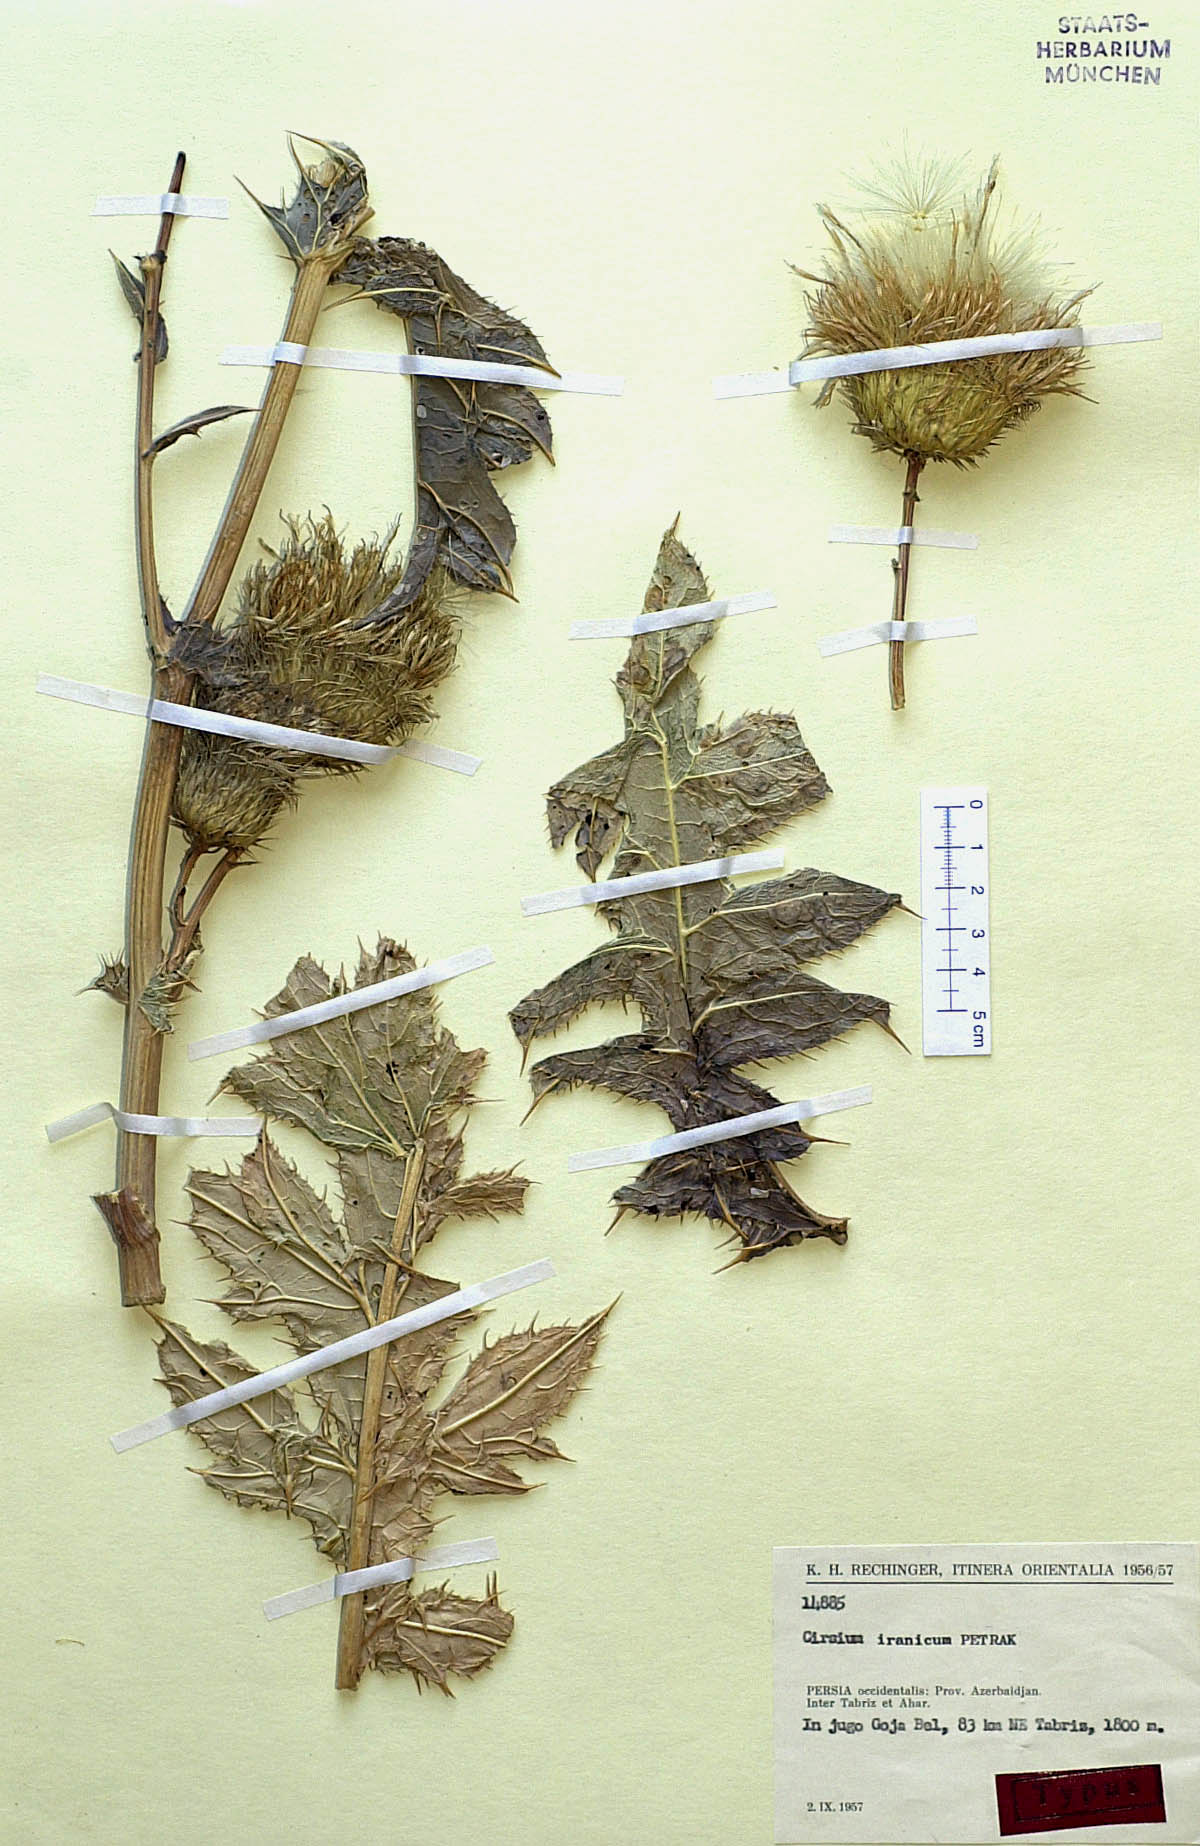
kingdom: Plantae
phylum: Tracheophyta
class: Magnoliopsida
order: Asterales
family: Asteraceae
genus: Lophiolepis
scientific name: Lophiolepis iranica
